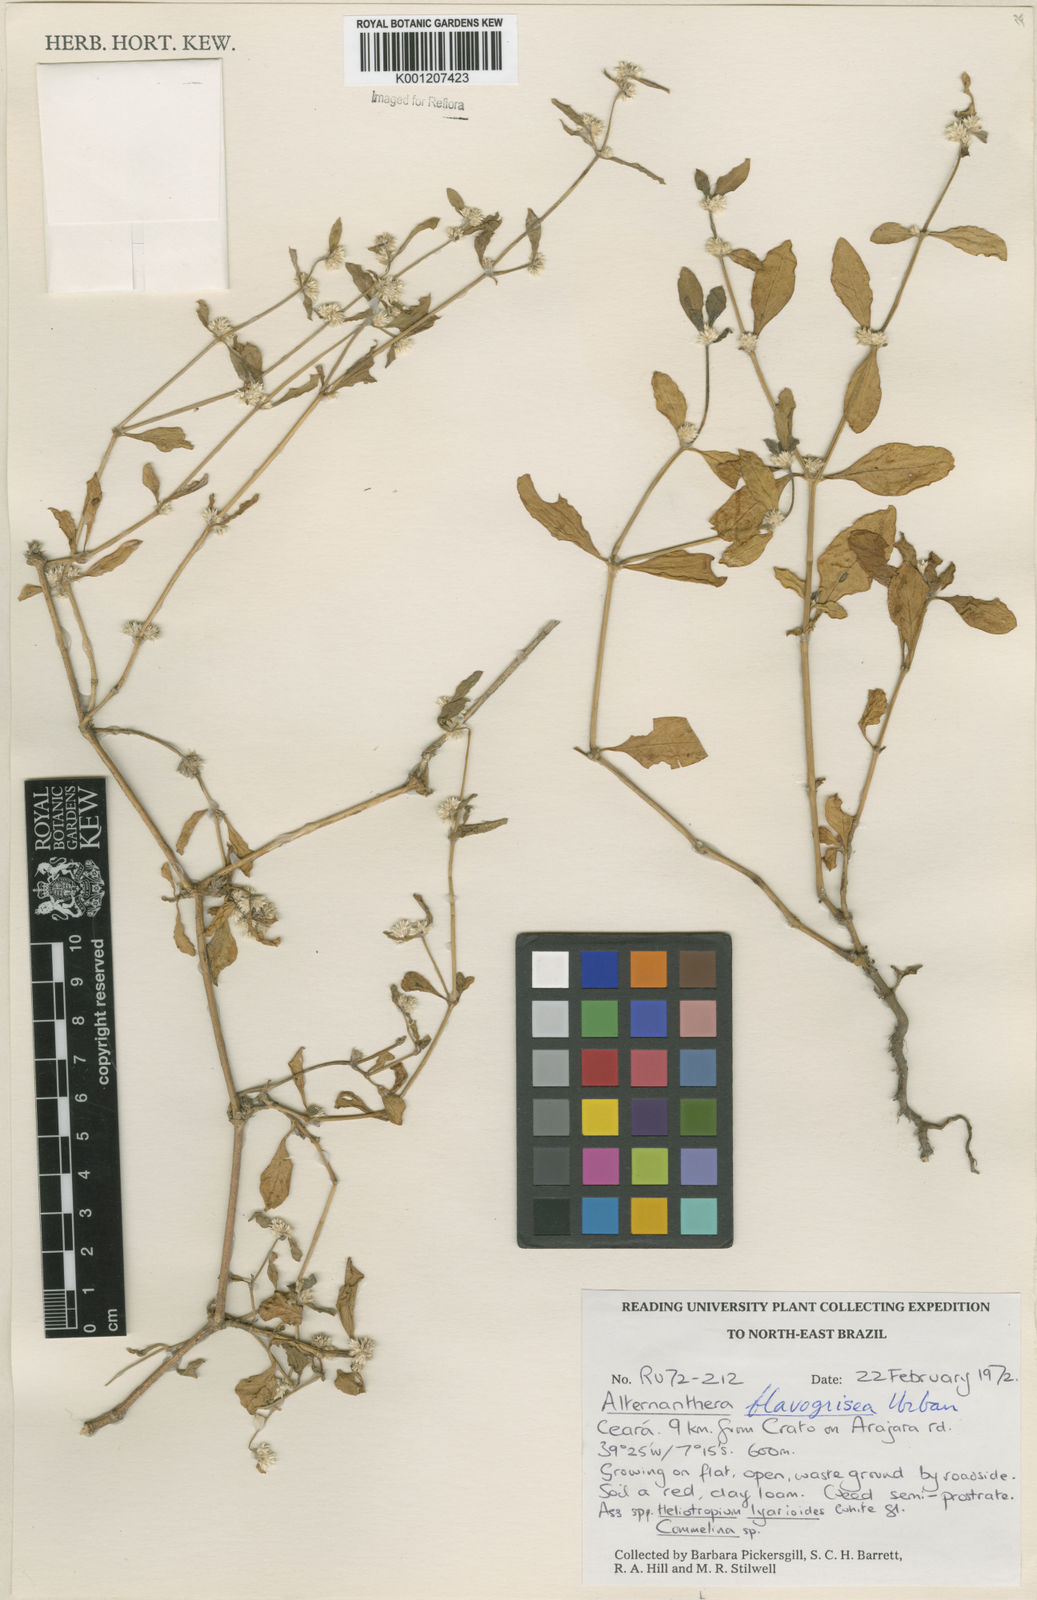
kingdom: Plantae
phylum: Tracheophyta
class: Magnoliopsida
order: Caryophyllales
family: Amaranthaceae
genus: Alternanthera
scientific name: Alternanthera halimifolia
